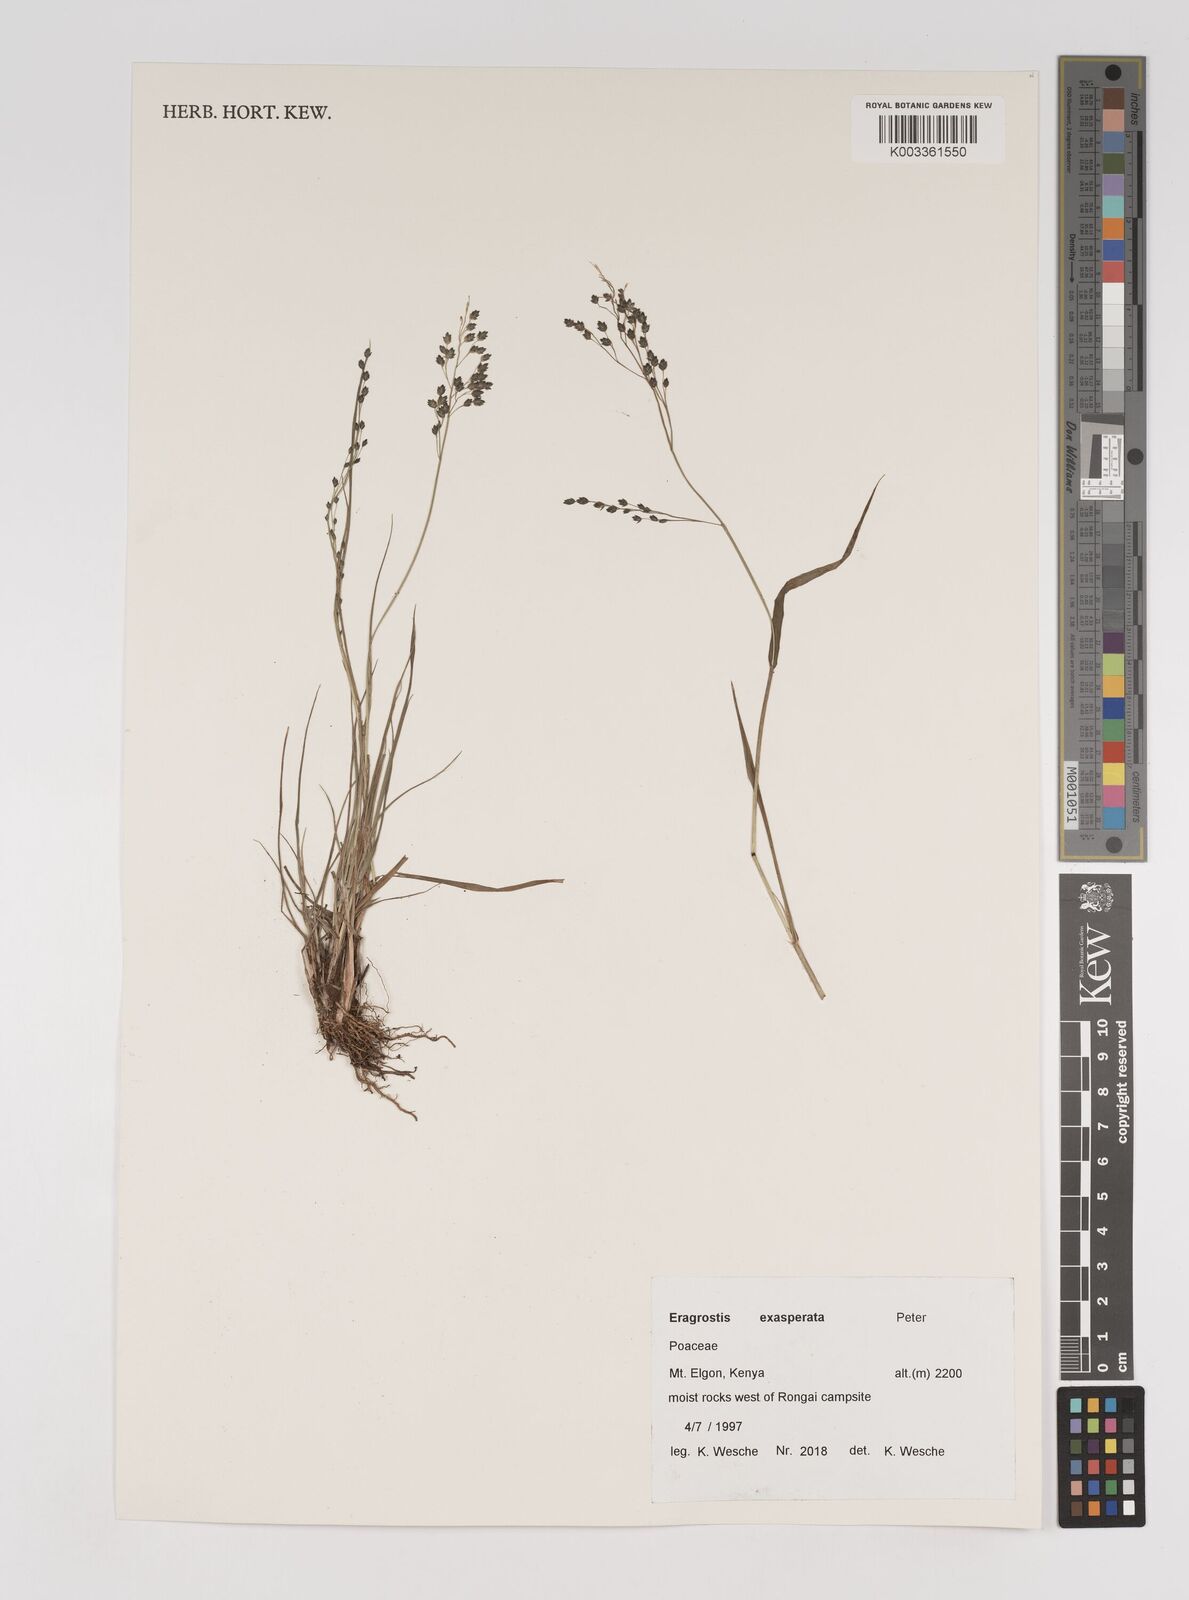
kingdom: Plantae
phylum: Tracheophyta
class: Liliopsida
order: Poales
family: Poaceae
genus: Eragrostis
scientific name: Eragrostis exasperata
